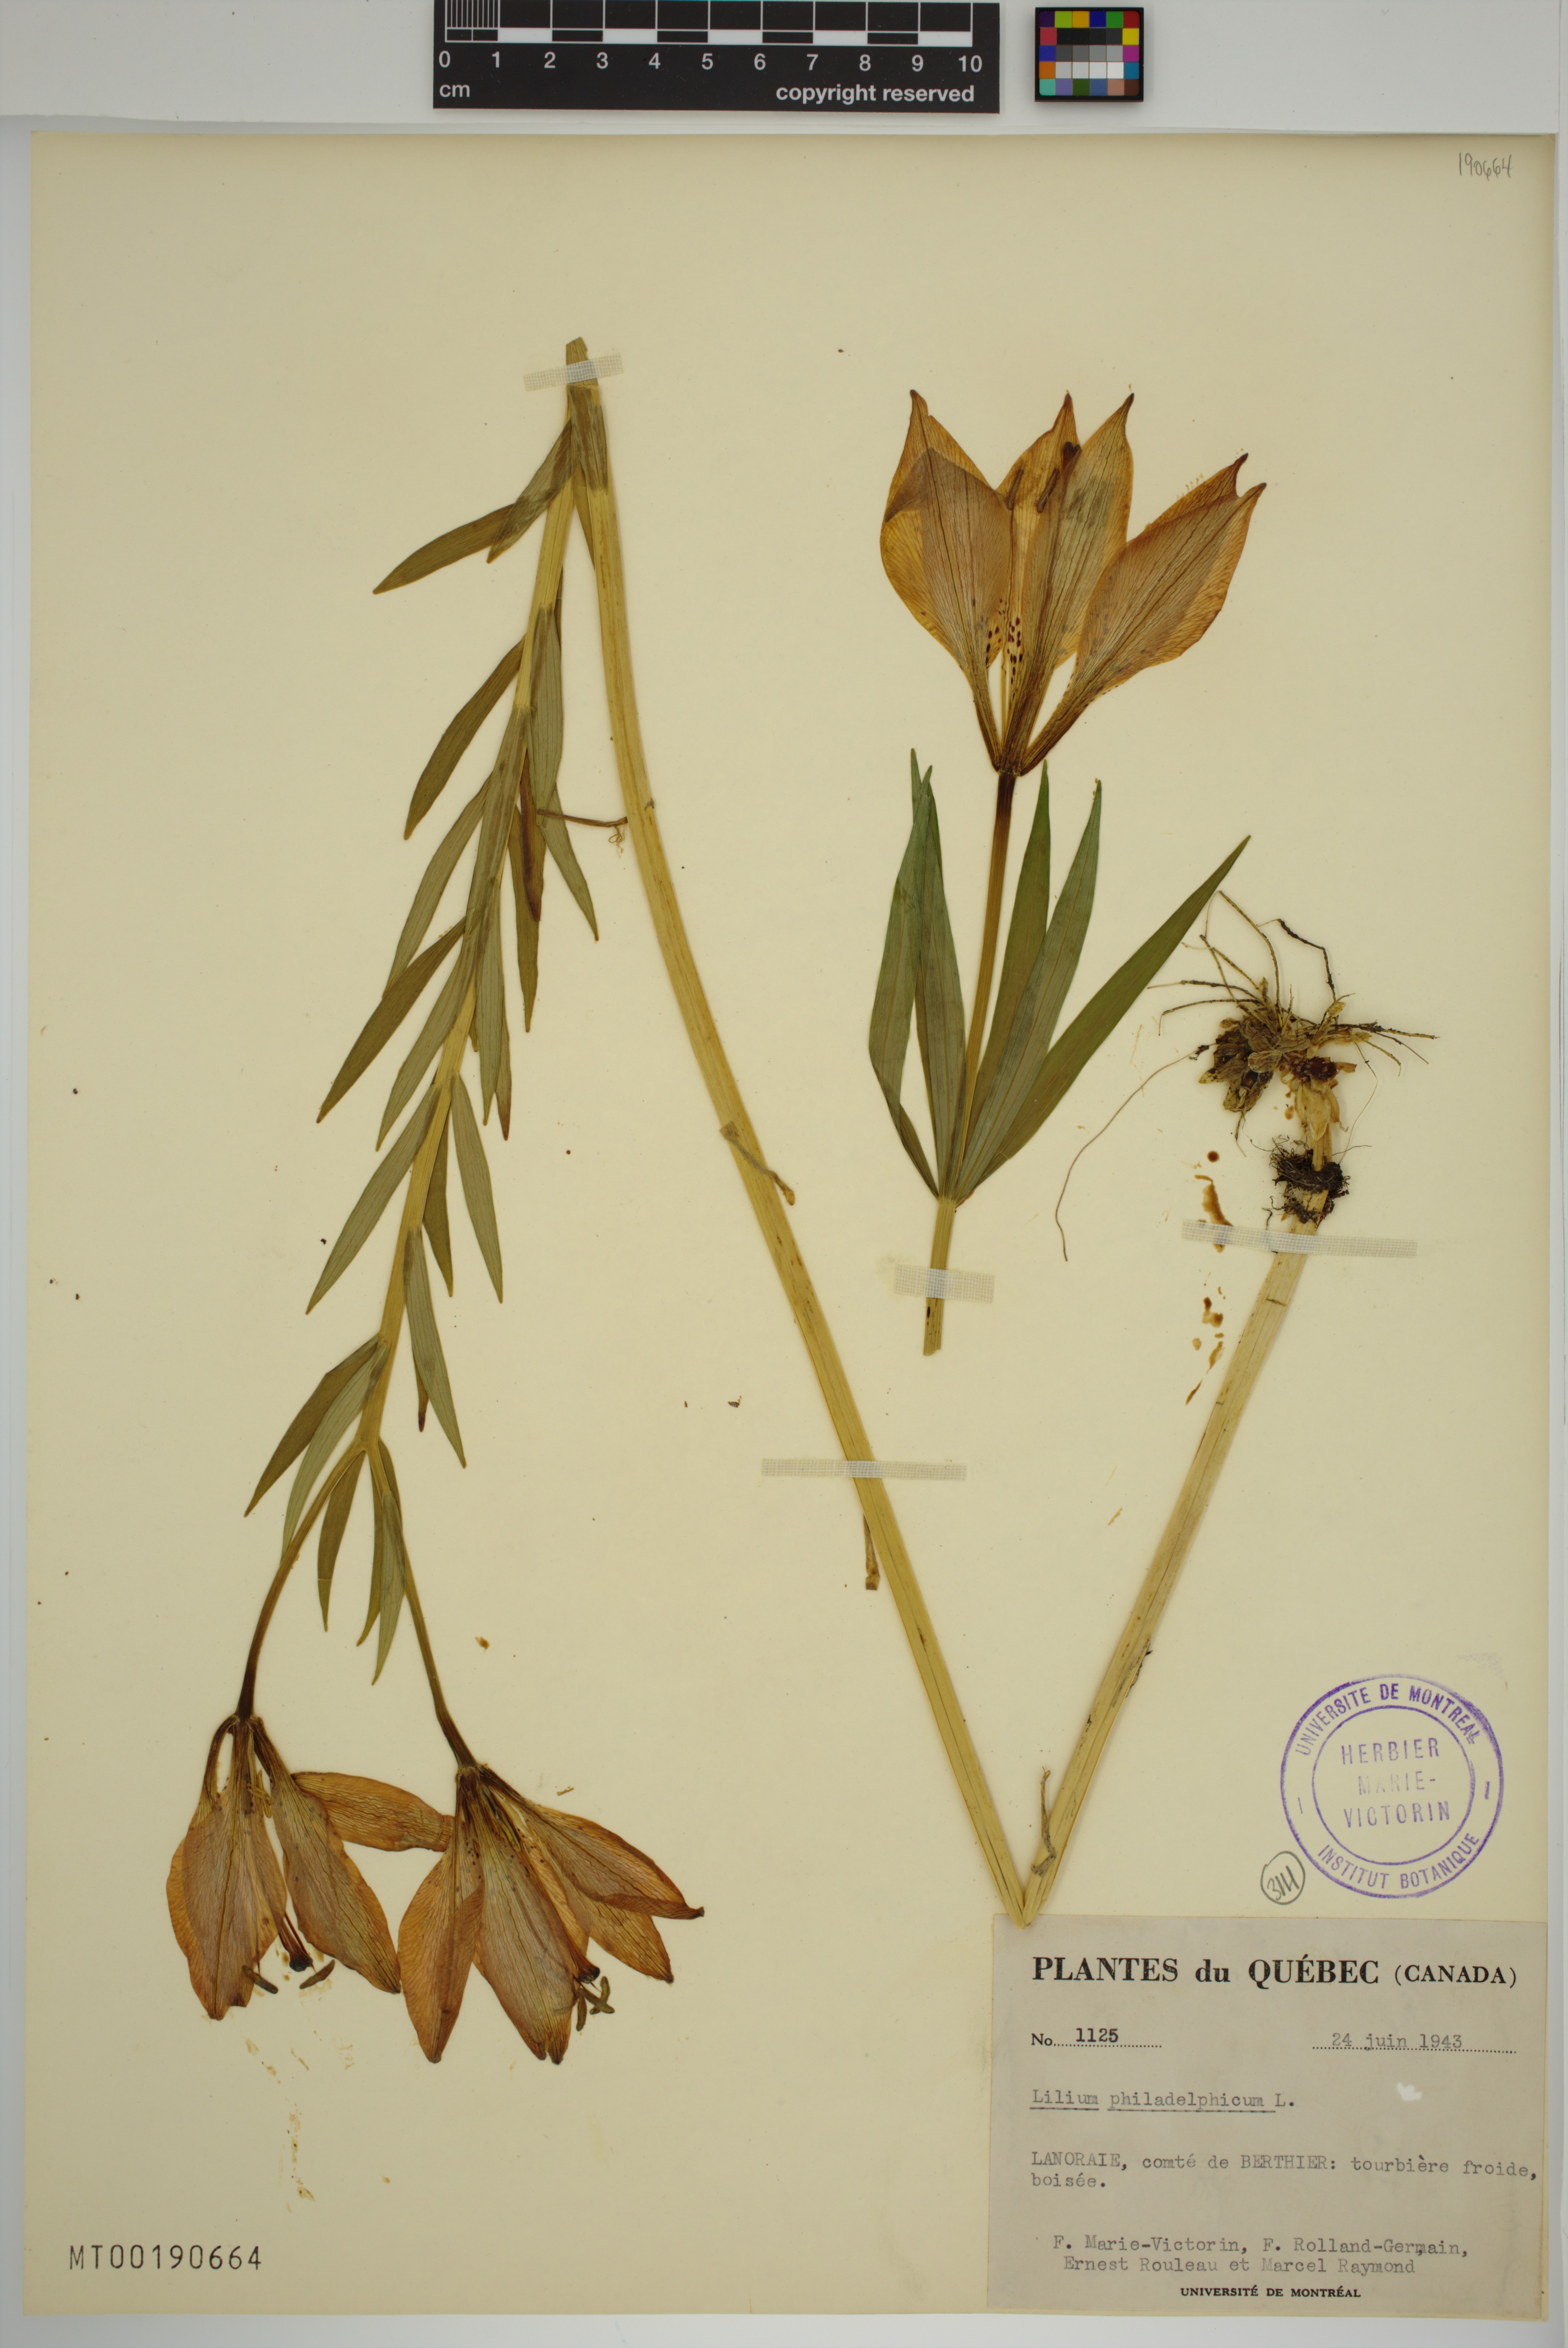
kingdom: Plantae
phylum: Tracheophyta
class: Liliopsida
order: Liliales
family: Liliaceae
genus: Lilium
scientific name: Lilium philadelphicum
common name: Red lily
